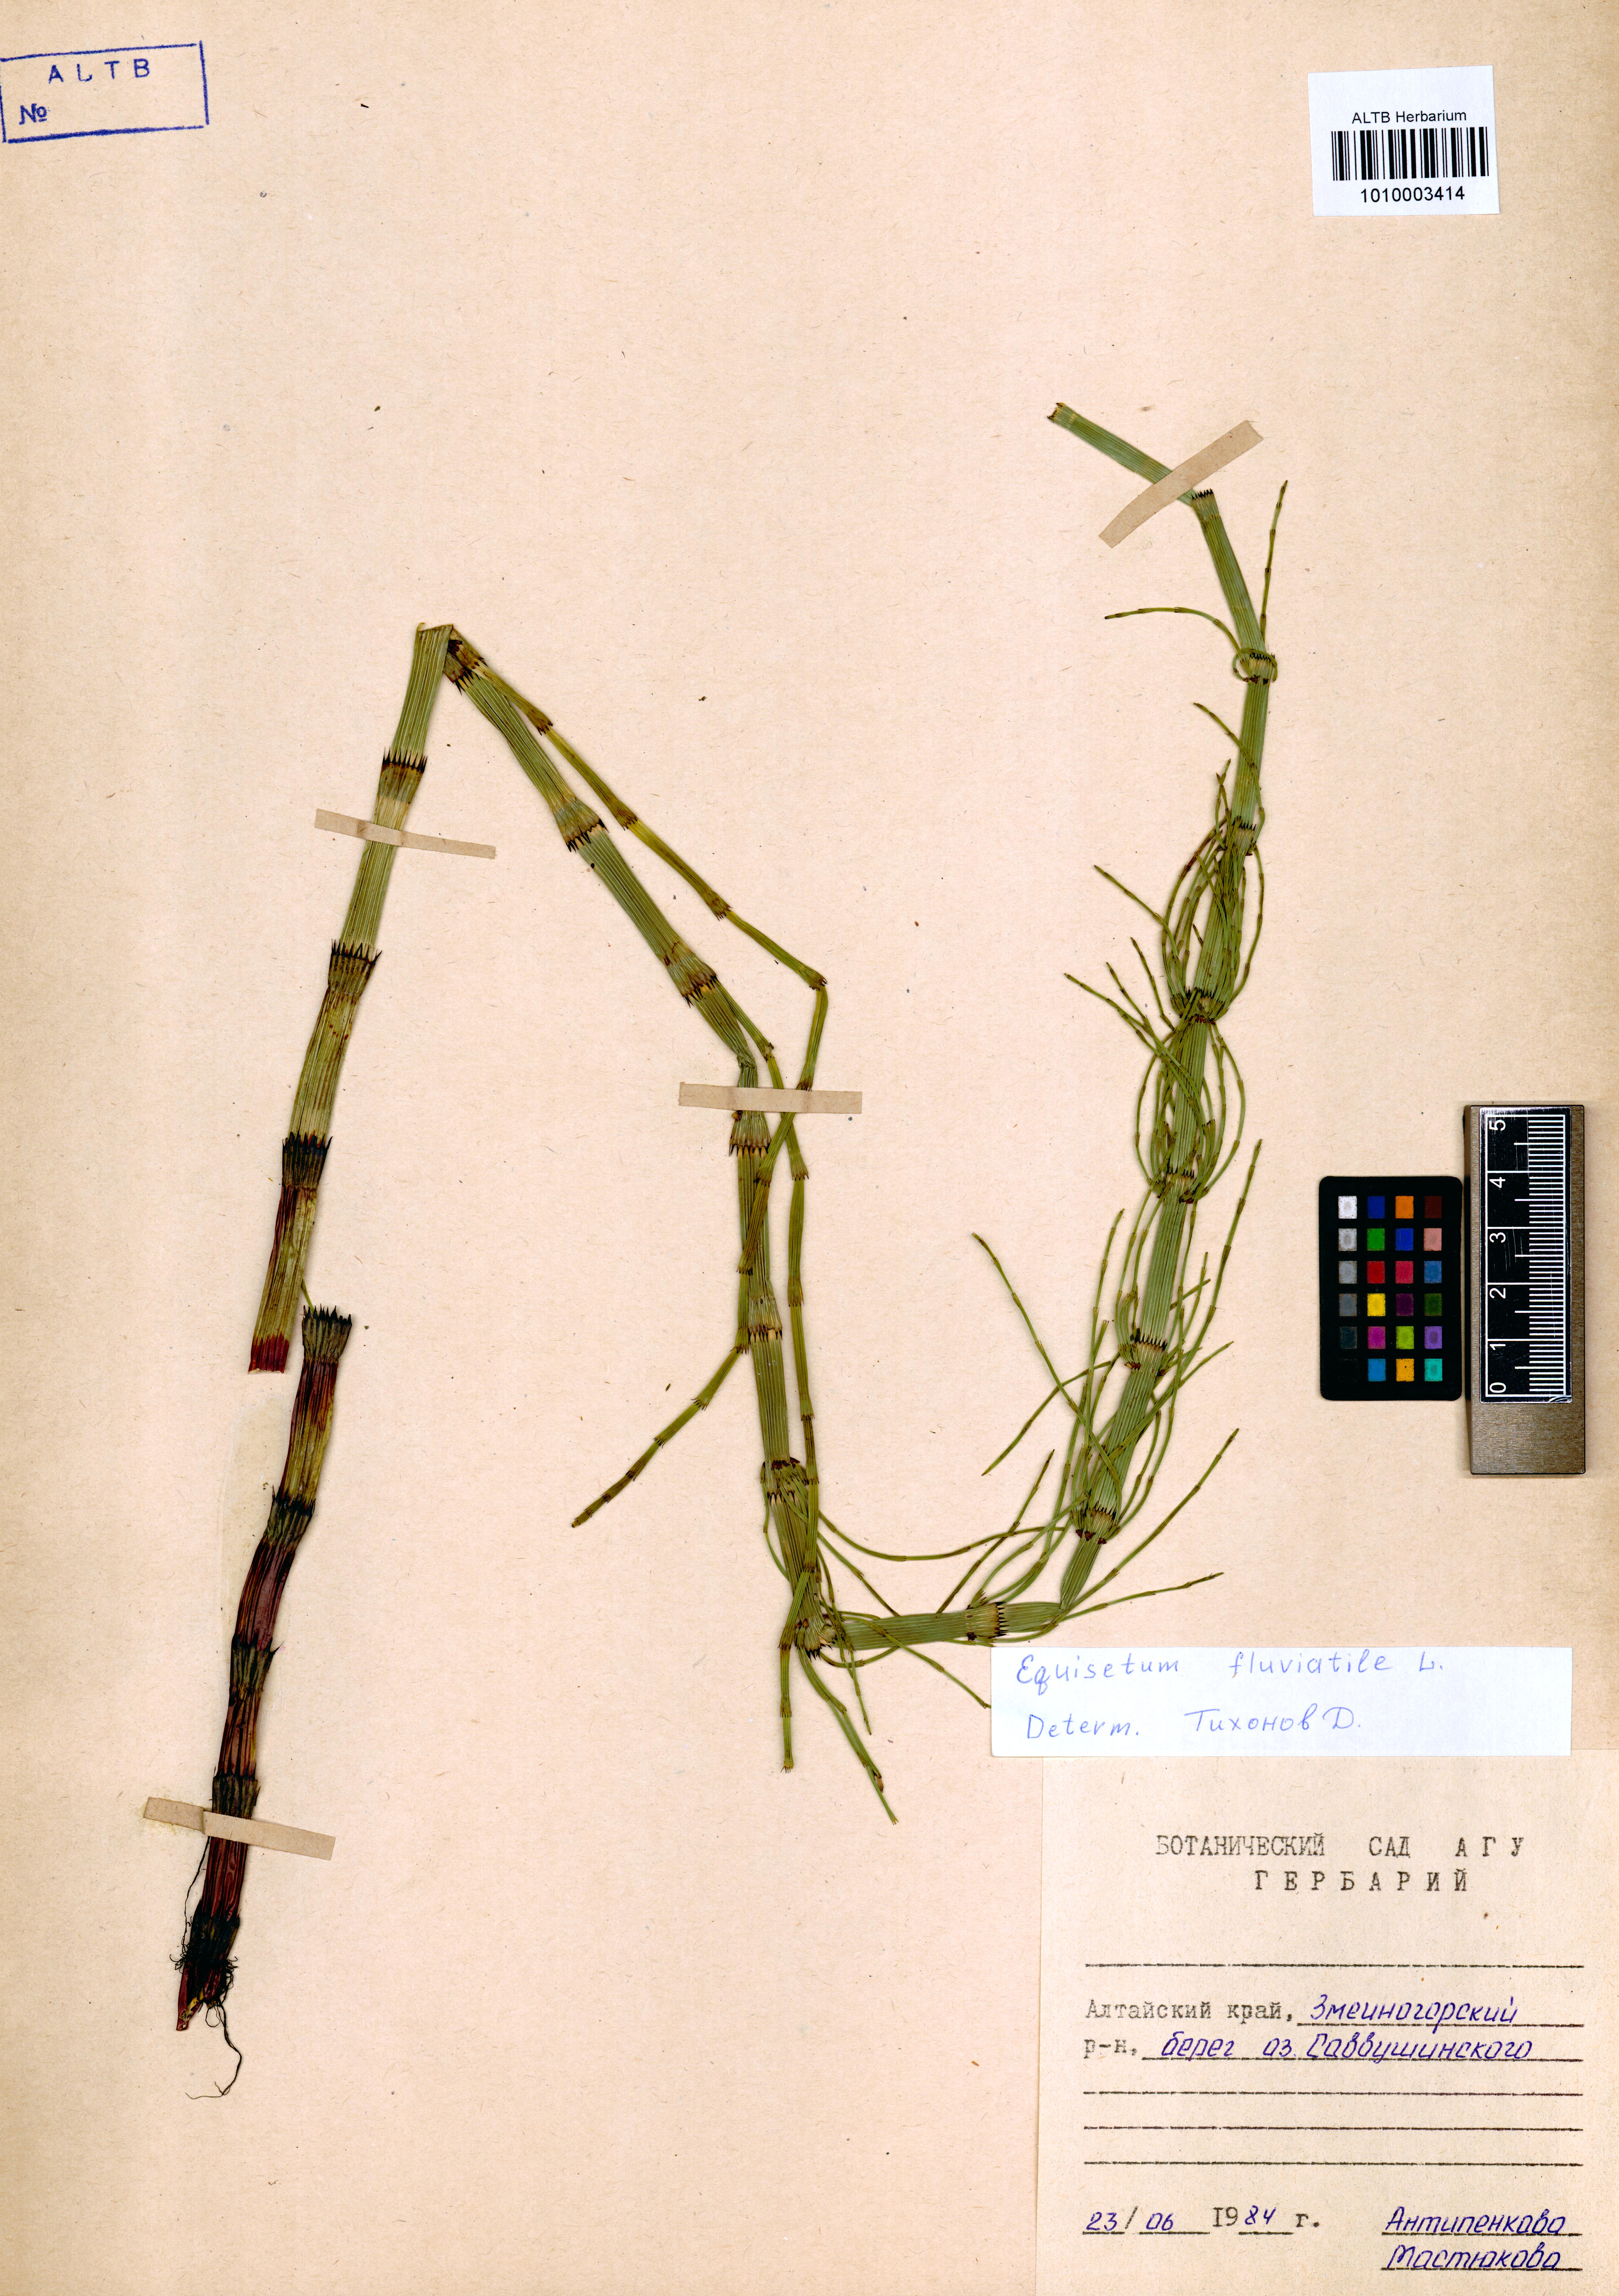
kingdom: Plantae
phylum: Tracheophyta
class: Polypodiopsida
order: Equisetales
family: Equisetaceae
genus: Equisetum
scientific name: Equisetum fluviatile
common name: Water horsetail
